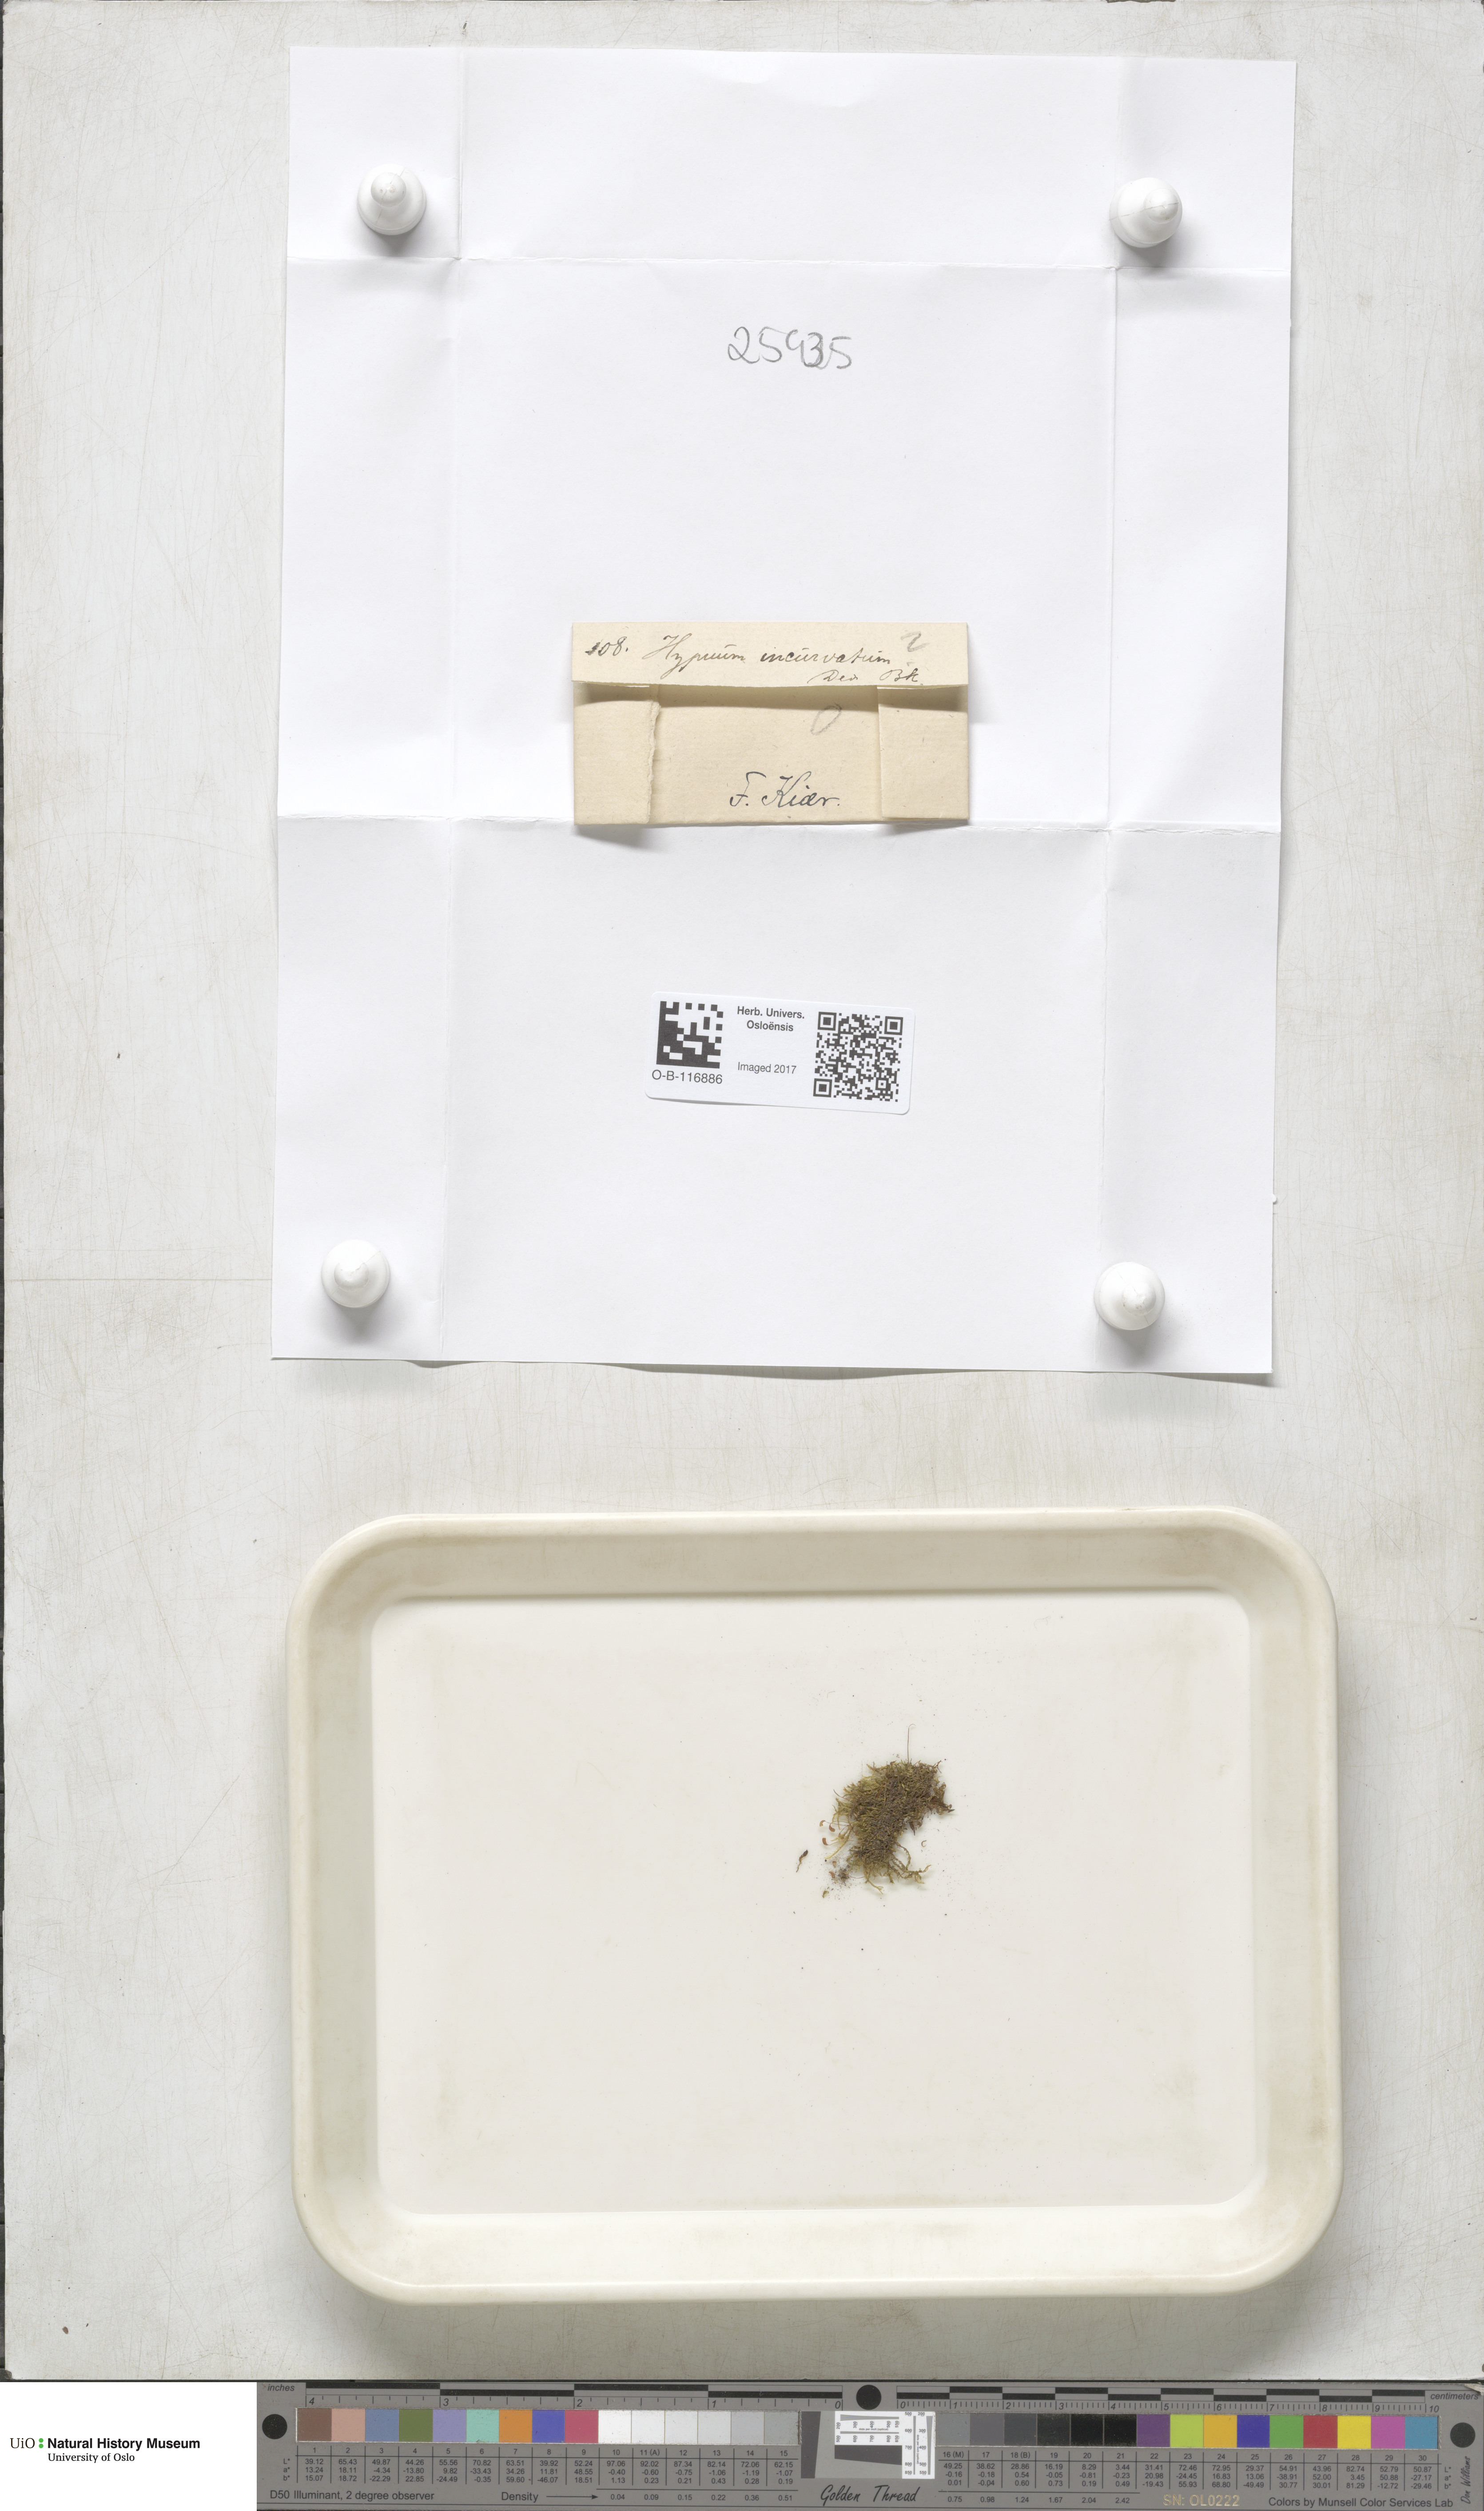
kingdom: Plantae
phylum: Bryophyta
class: Bryopsida
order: Hypnales
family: Pylaisiaceae
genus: Homomallium
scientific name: Homomallium incurvatum
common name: Incurved feather-moss
